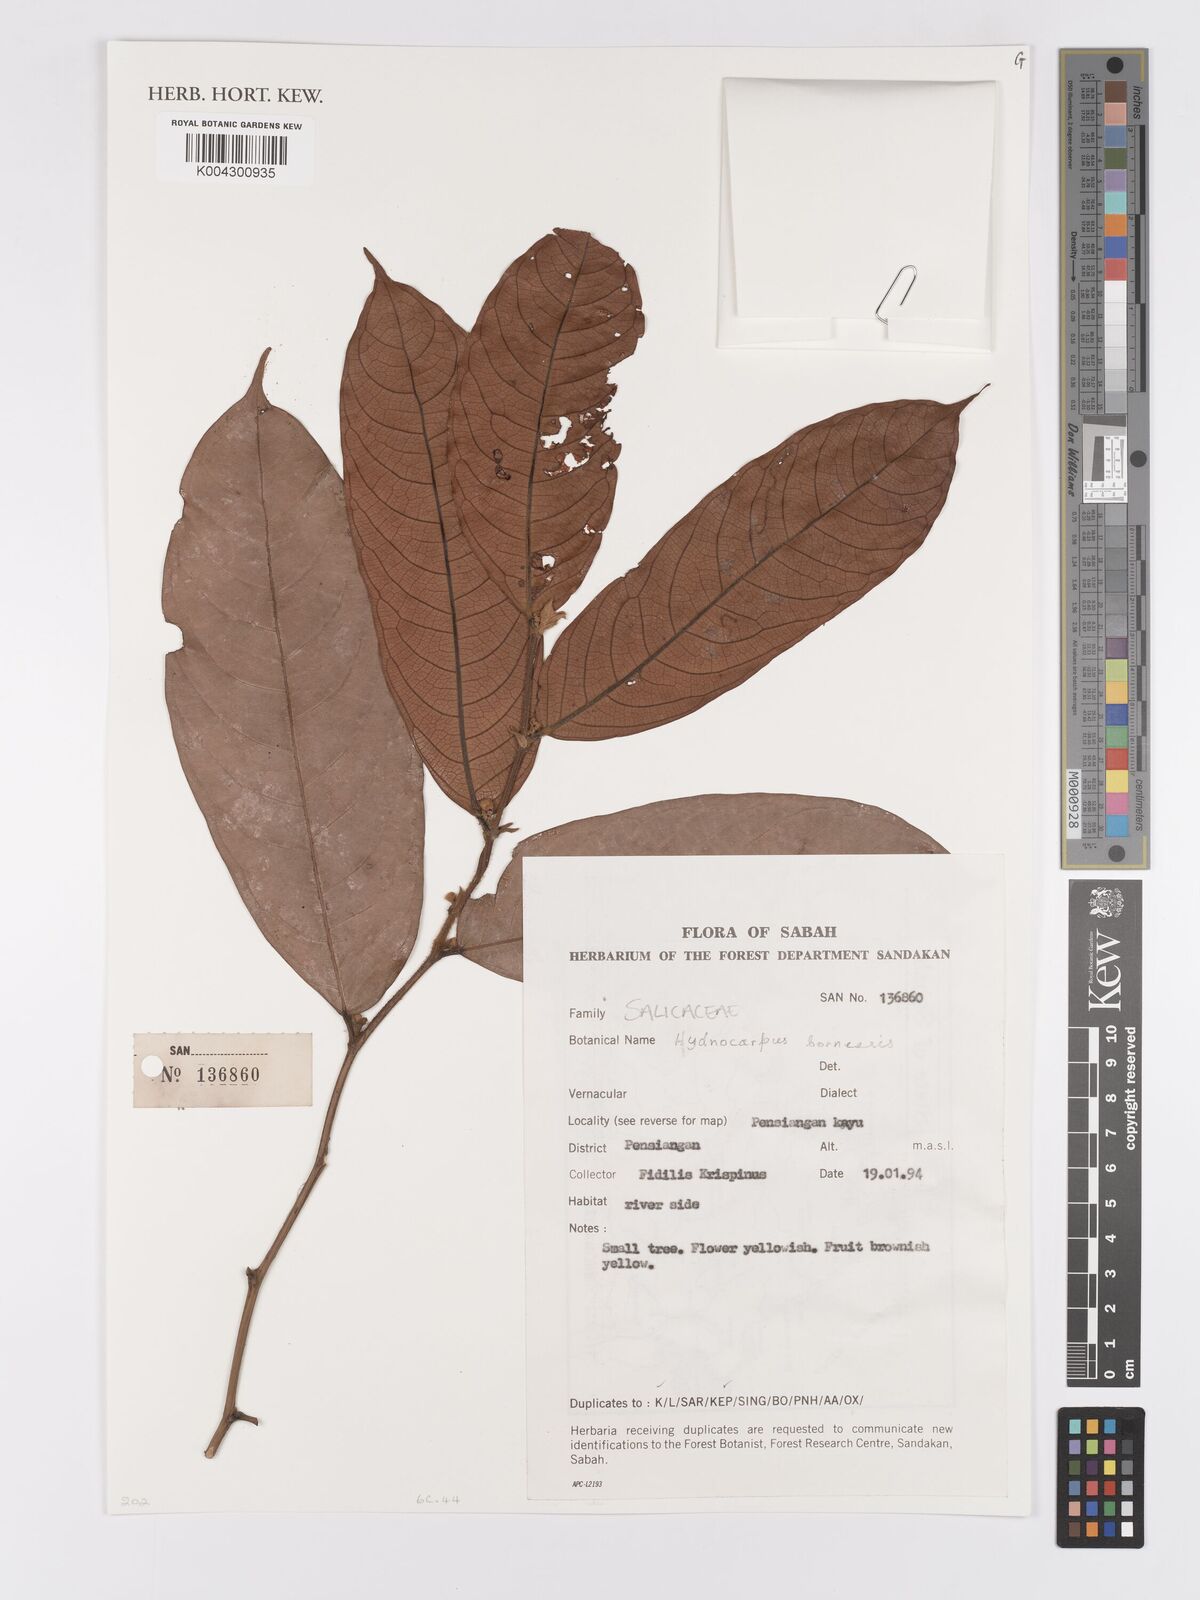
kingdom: Plantae
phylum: Tracheophyta
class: Magnoliopsida
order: Malpighiales
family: Achariaceae
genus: Hydnocarpus
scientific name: Hydnocarpus borneensis
